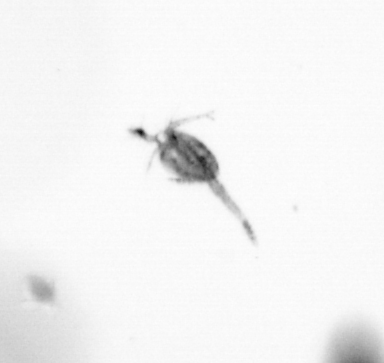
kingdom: Animalia
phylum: Arthropoda
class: Copepoda
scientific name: Copepoda
